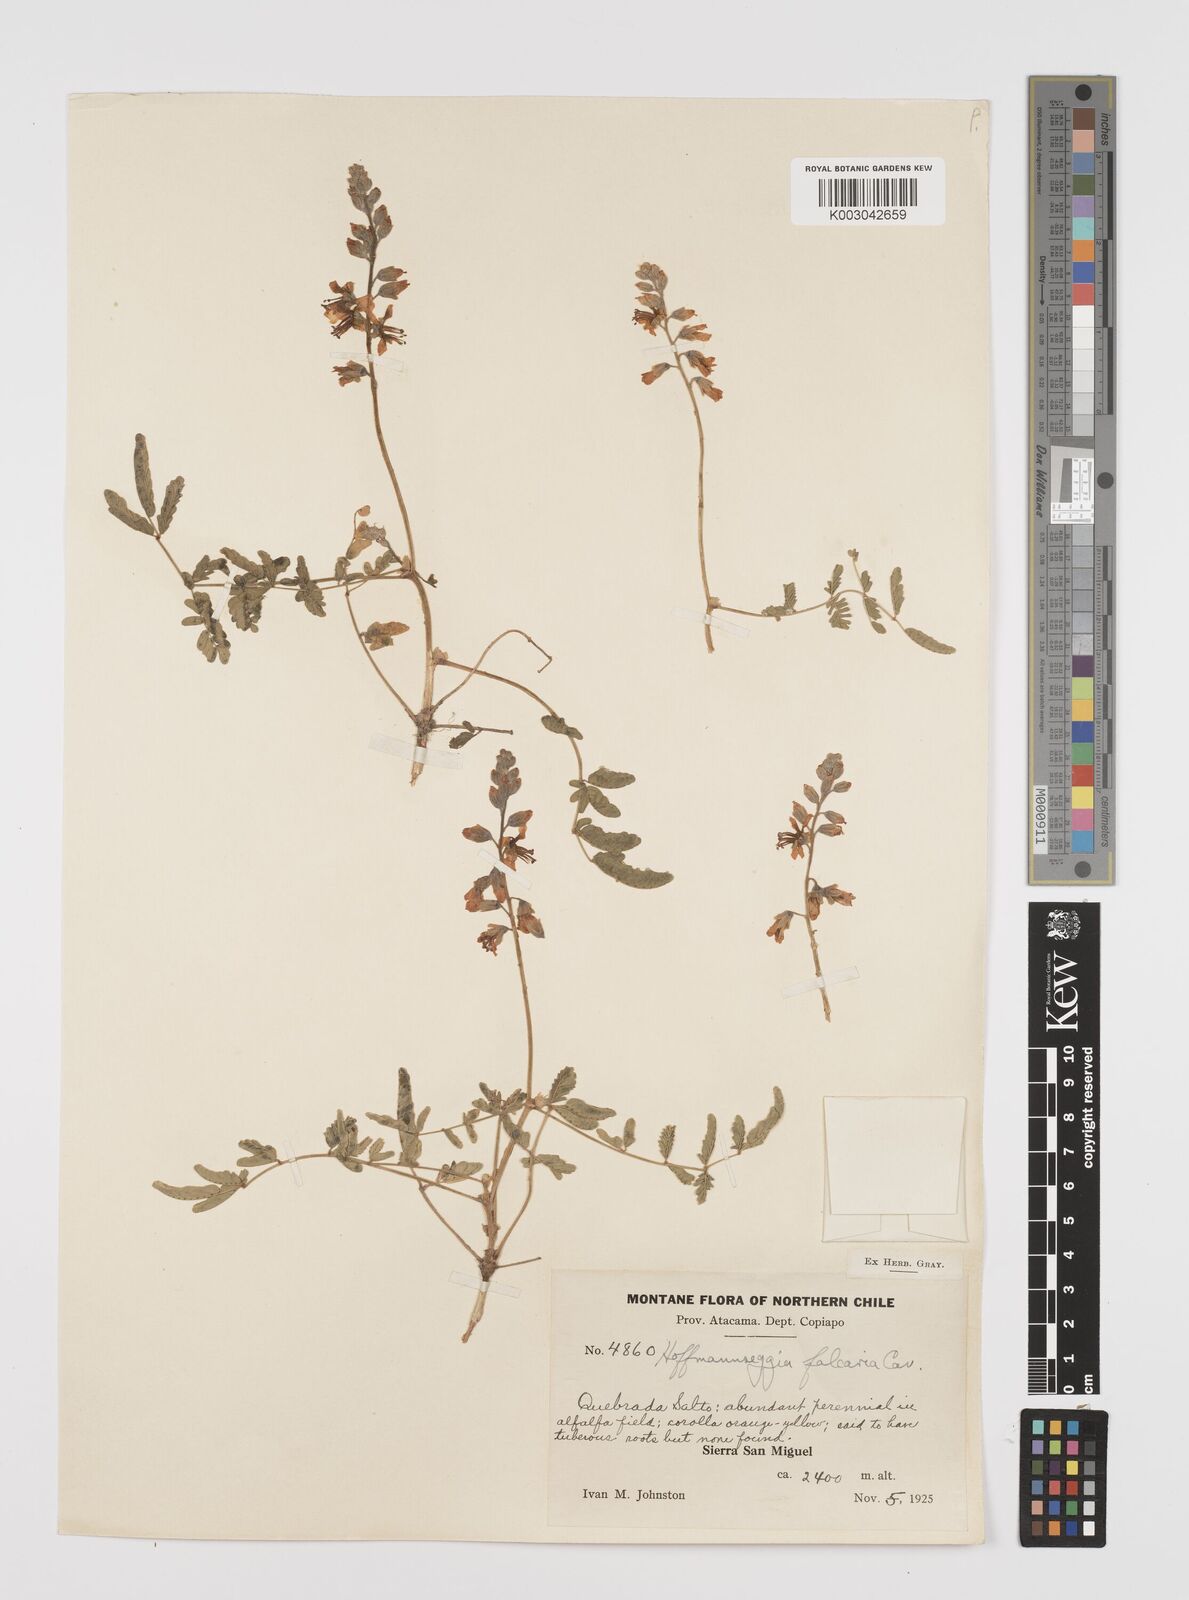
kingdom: Plantae
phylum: Tracheophyta
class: Magnoliopsida
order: Fabales
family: Fabaceae
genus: Hoffmannseggia
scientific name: Hoffmannseggia glauca
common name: Pignut
